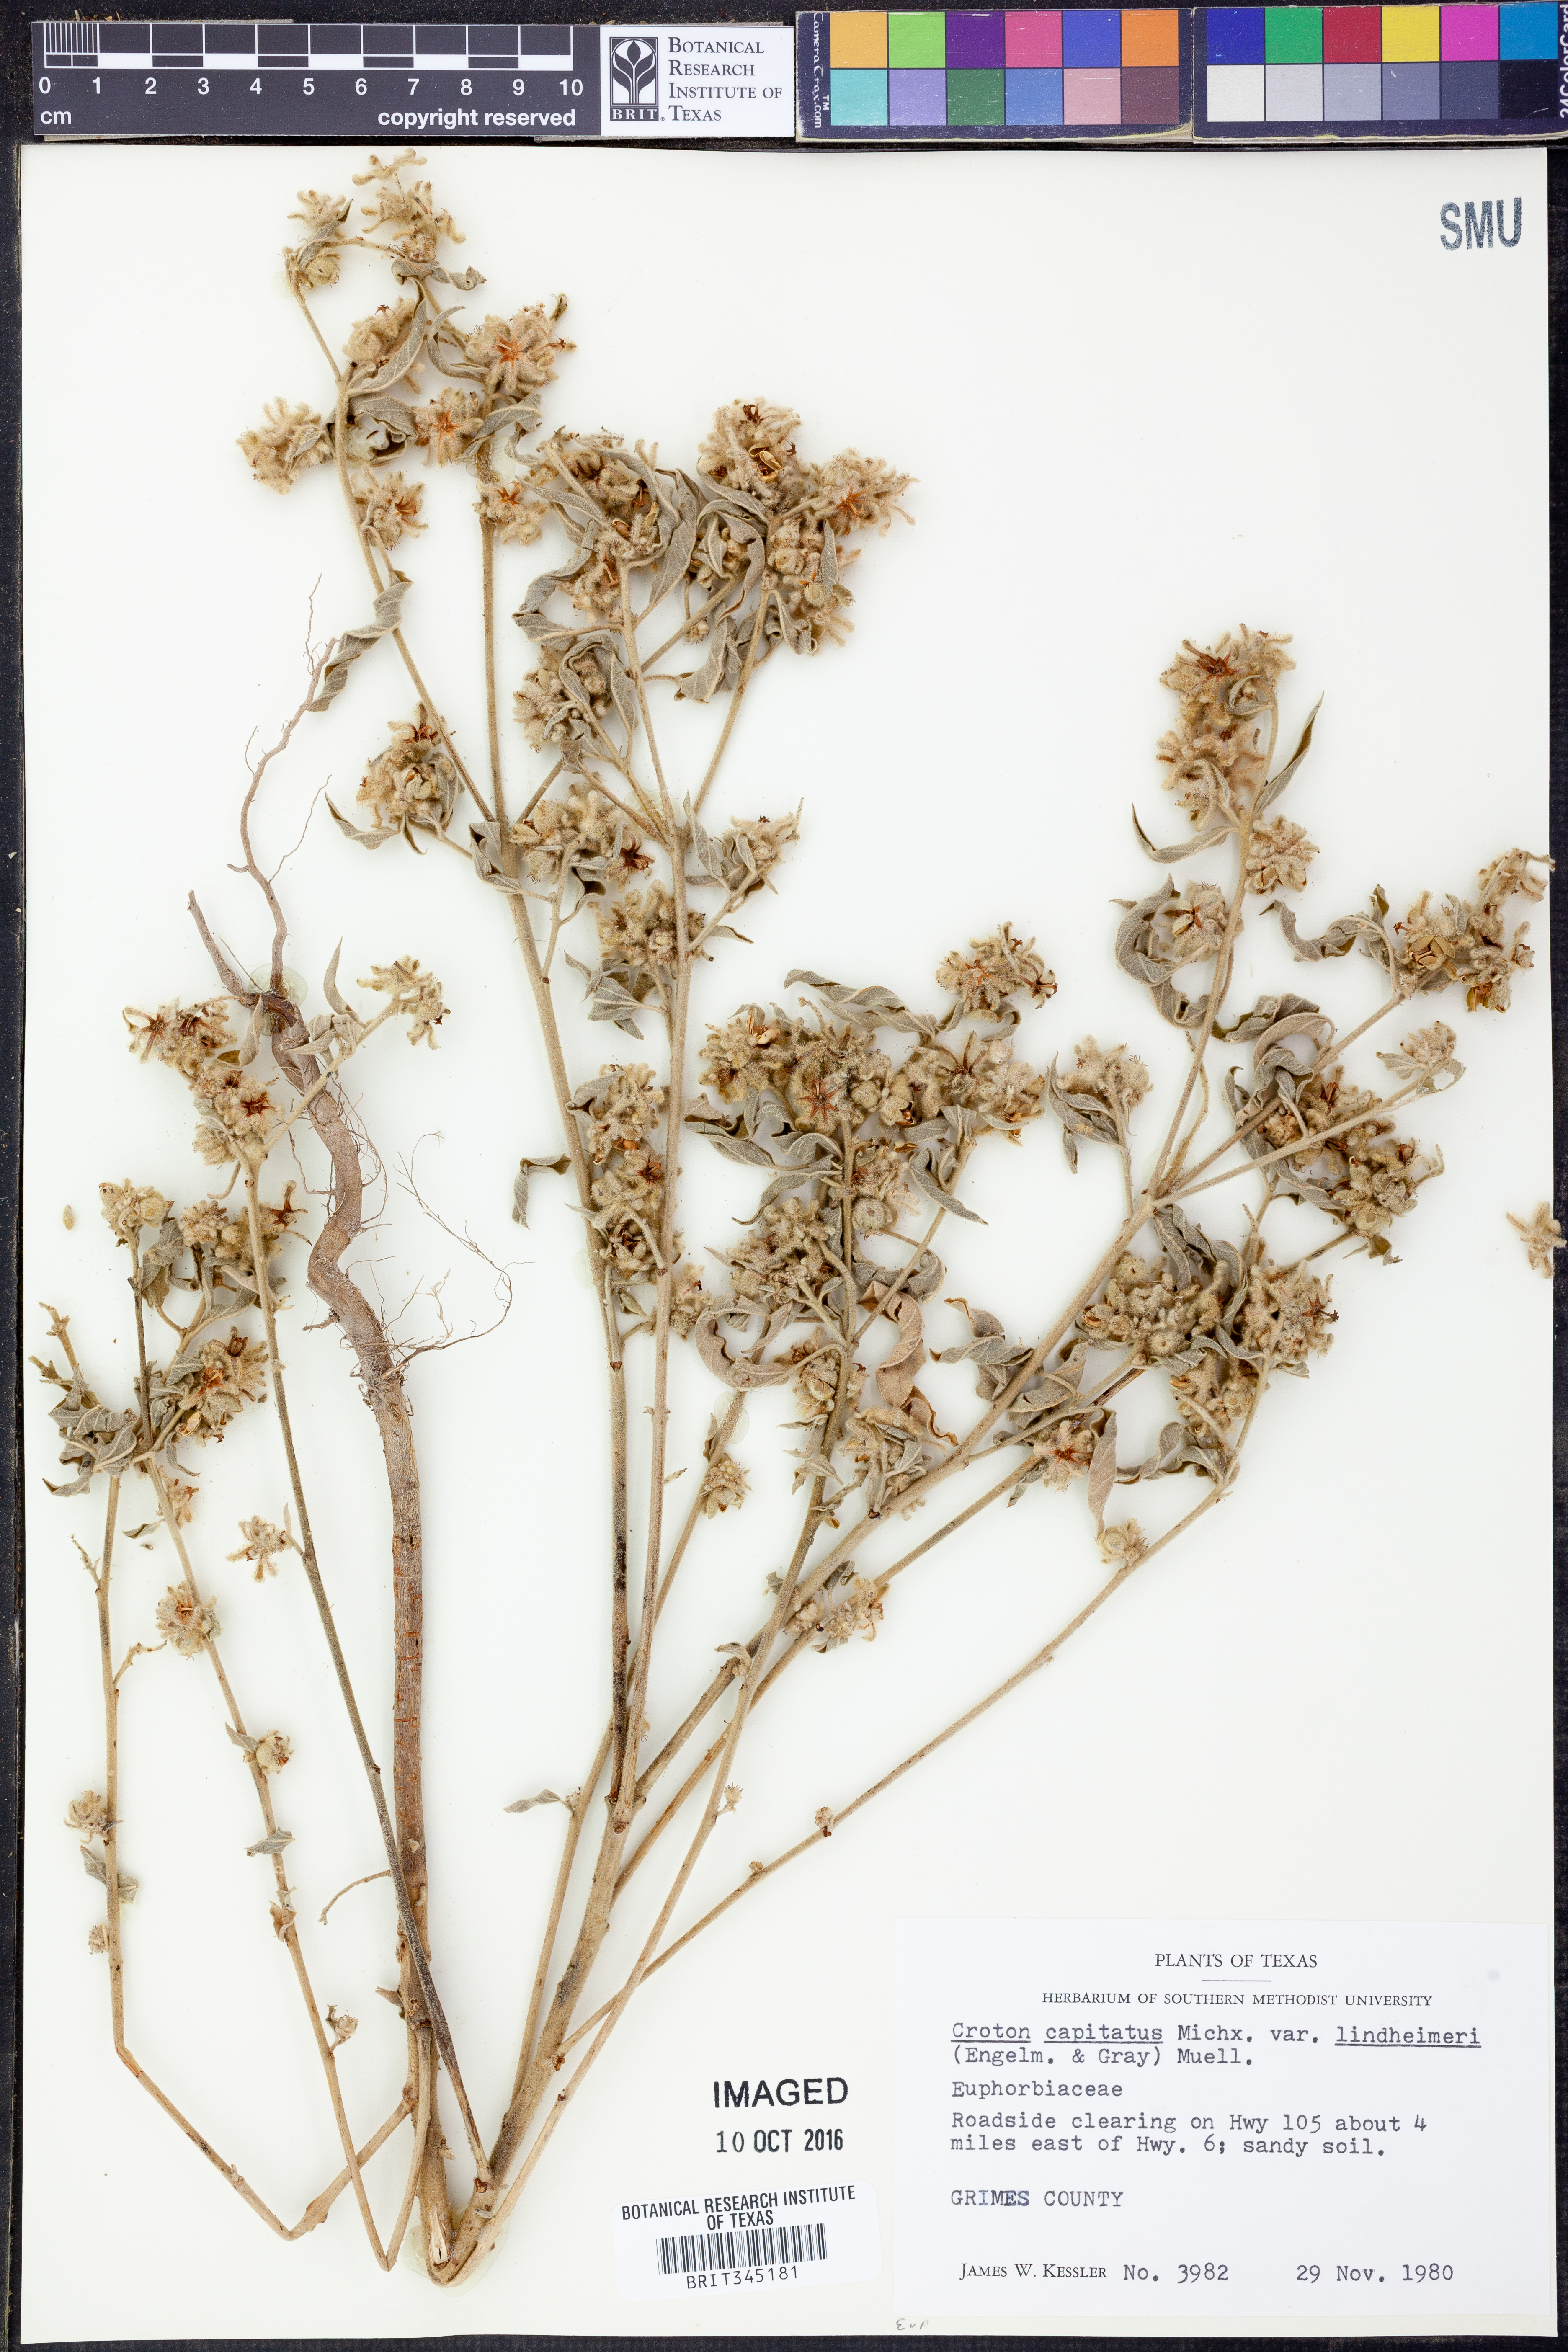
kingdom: Plantae
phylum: Tracheophyta
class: Magnoliopsida
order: Malpighiales
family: Euphorbiaceae
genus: Croton
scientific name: Croton lindheimeri
